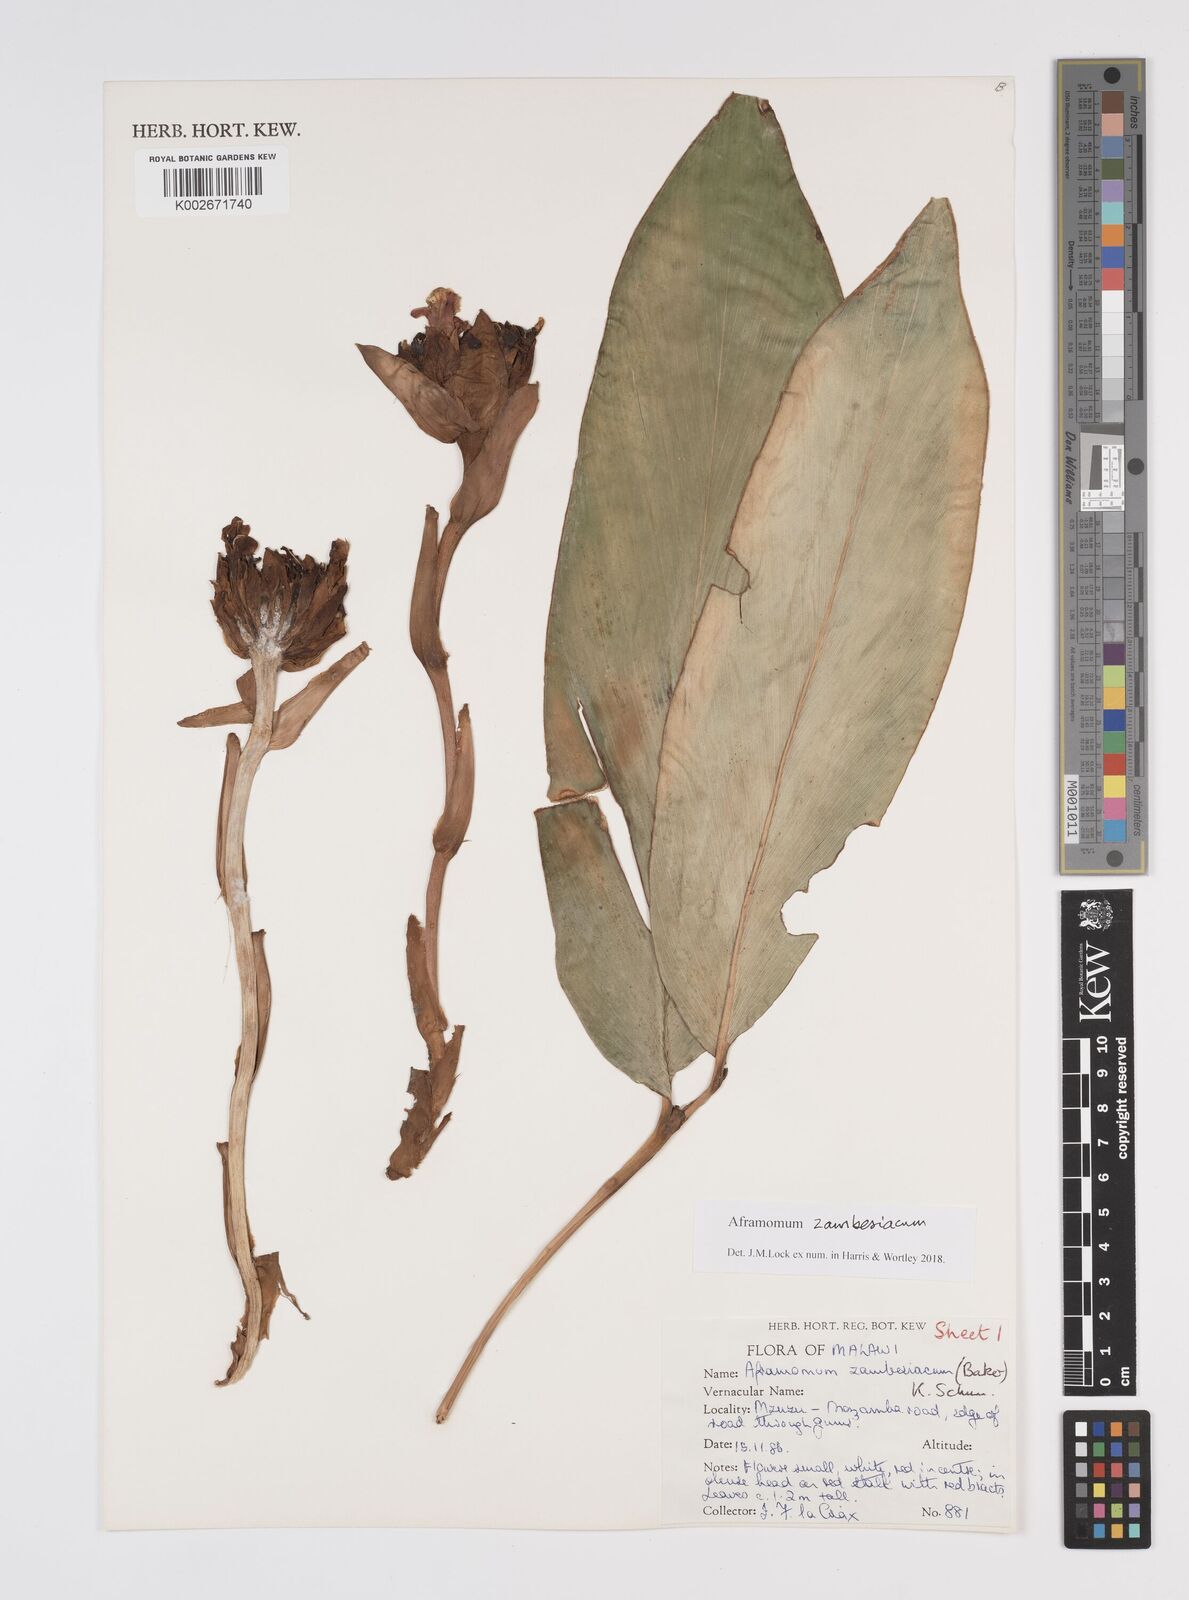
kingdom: Plantae
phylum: Tracheophyta
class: Liliopsida
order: Zingiberales
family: Zingiberaceae
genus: Aframomum
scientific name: Aframomum zambesiacum
